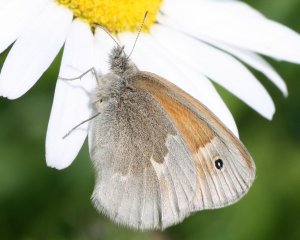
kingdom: Animalia
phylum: Arthropoda
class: Insecta
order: Lepidoptera
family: Nymphalidae
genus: Coenonympha
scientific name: Coenonympha tullia
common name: Large Heath
